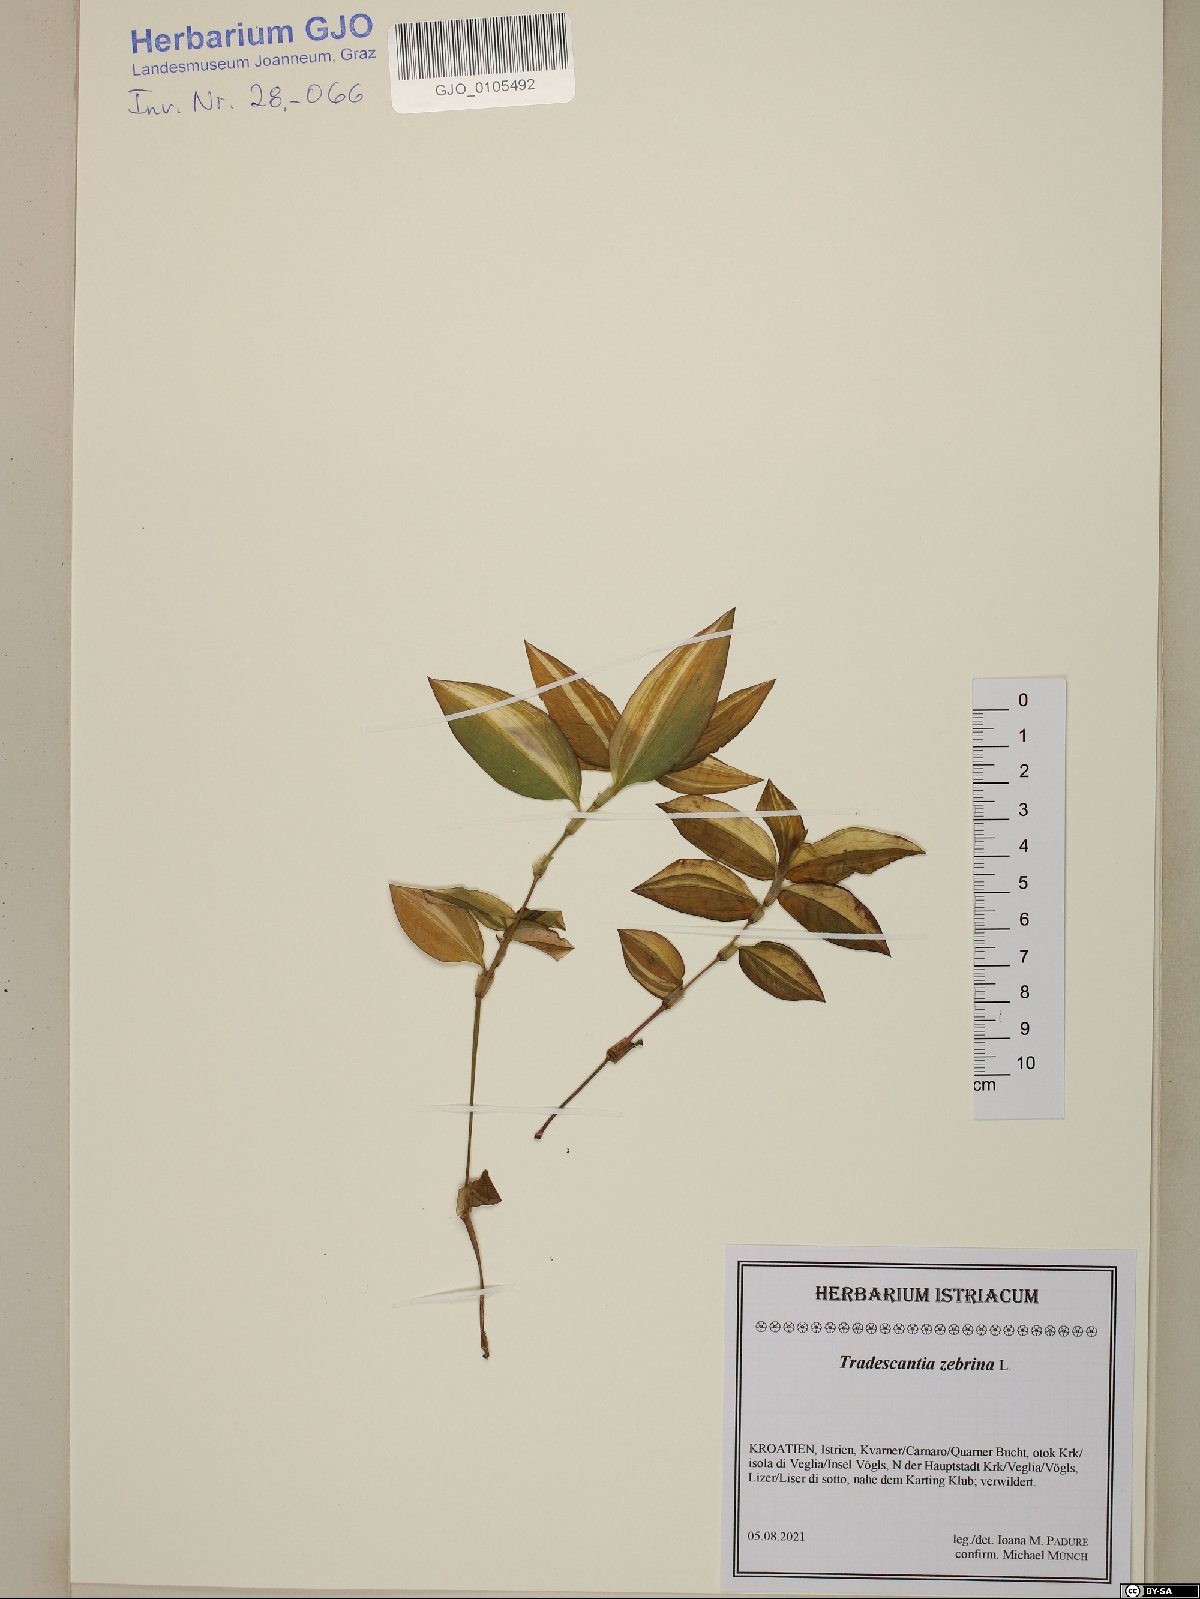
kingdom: Plantae
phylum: Tracheophyta
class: Liliopsida
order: Commelinales
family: Commelinaceae
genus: Tradescantia
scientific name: Tradescantia zebrina
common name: Inchplant
